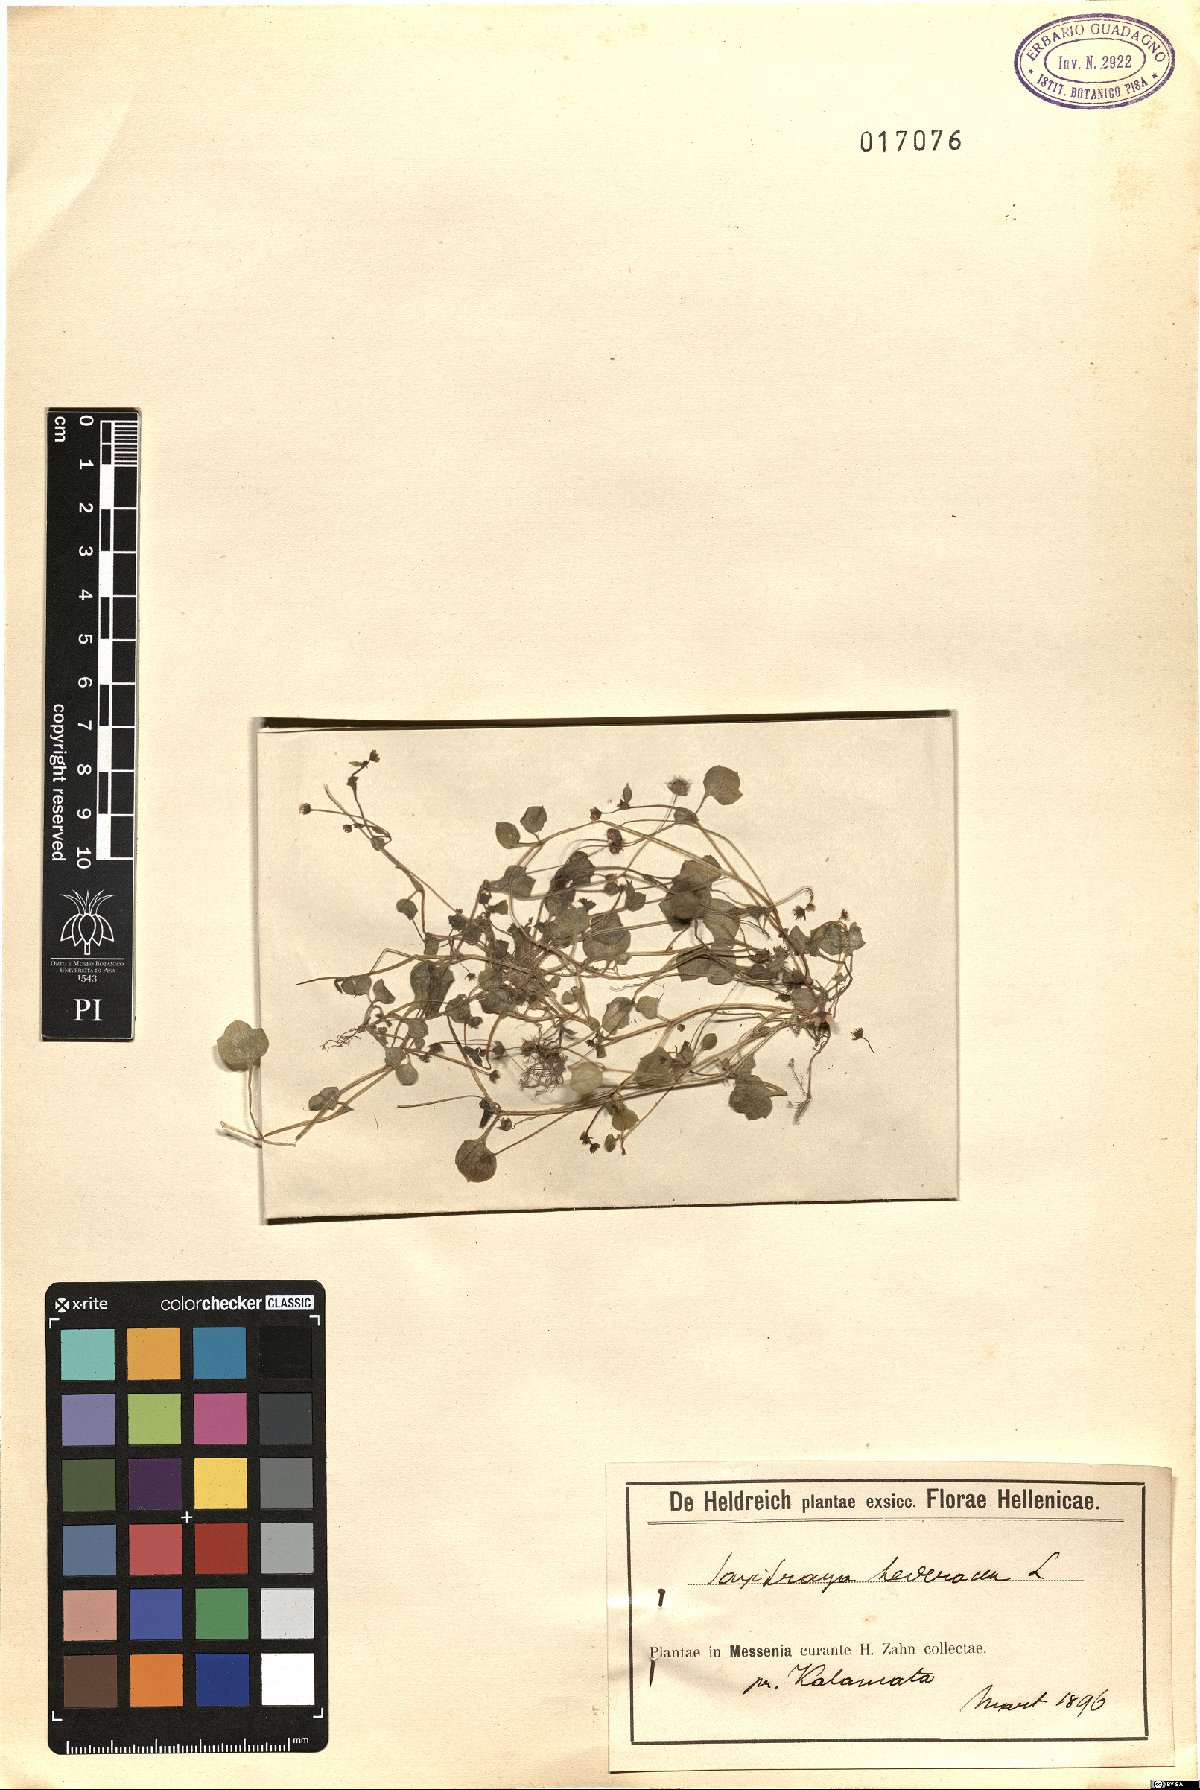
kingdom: Plantae
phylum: Tracheophyta
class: Magnoliopsida
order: Saxifragales
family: Saxifragaceae
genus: Saxifraga
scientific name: Saxifraga hederacea
